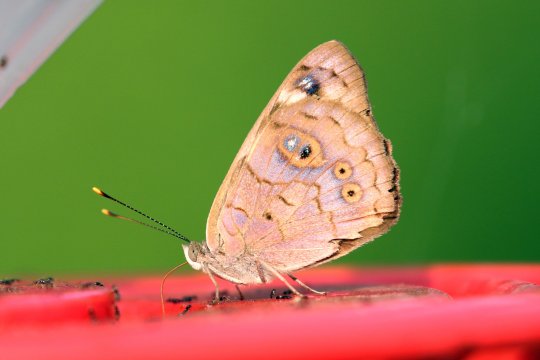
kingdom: Animalia
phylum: Arthropoda
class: Insecta
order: Lepidoptera
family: Nymphalidae
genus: Eunica
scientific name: Eunica monima
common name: Dingy Purplewing
